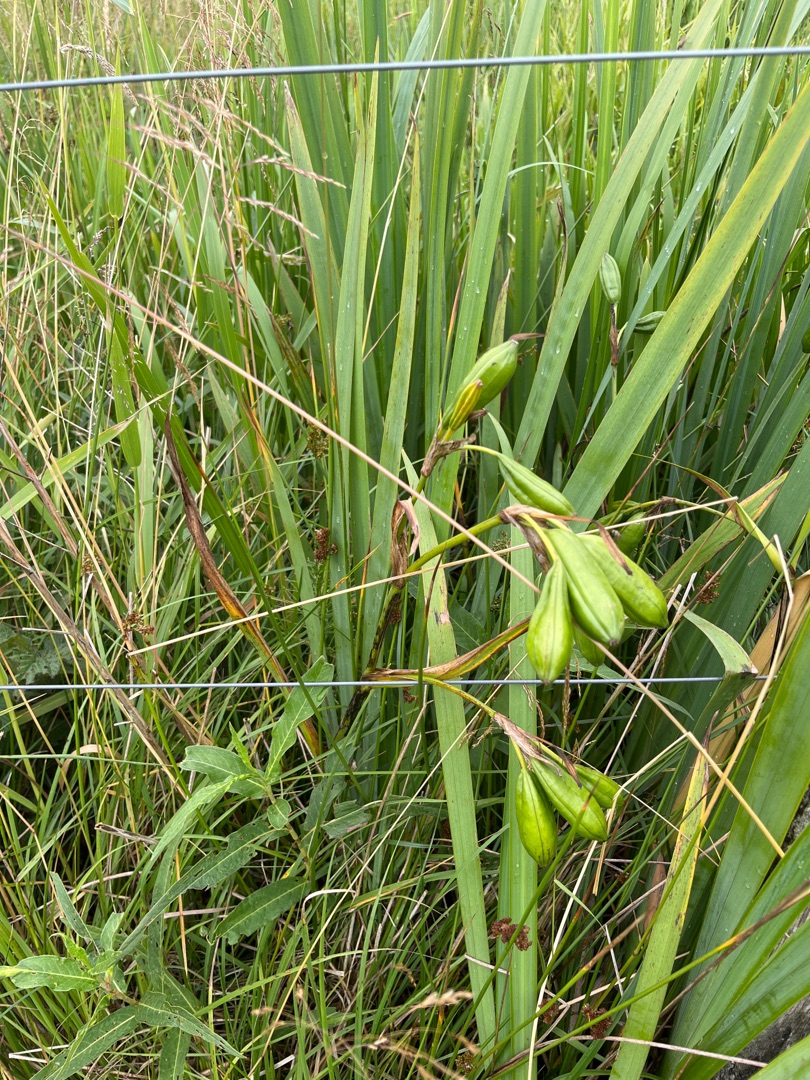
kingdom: Plantae
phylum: Tracheophyta
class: Liliopsida
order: Asparagales
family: Iridaceae
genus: Iris
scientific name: Iris pseudacorus
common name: Gul iris
